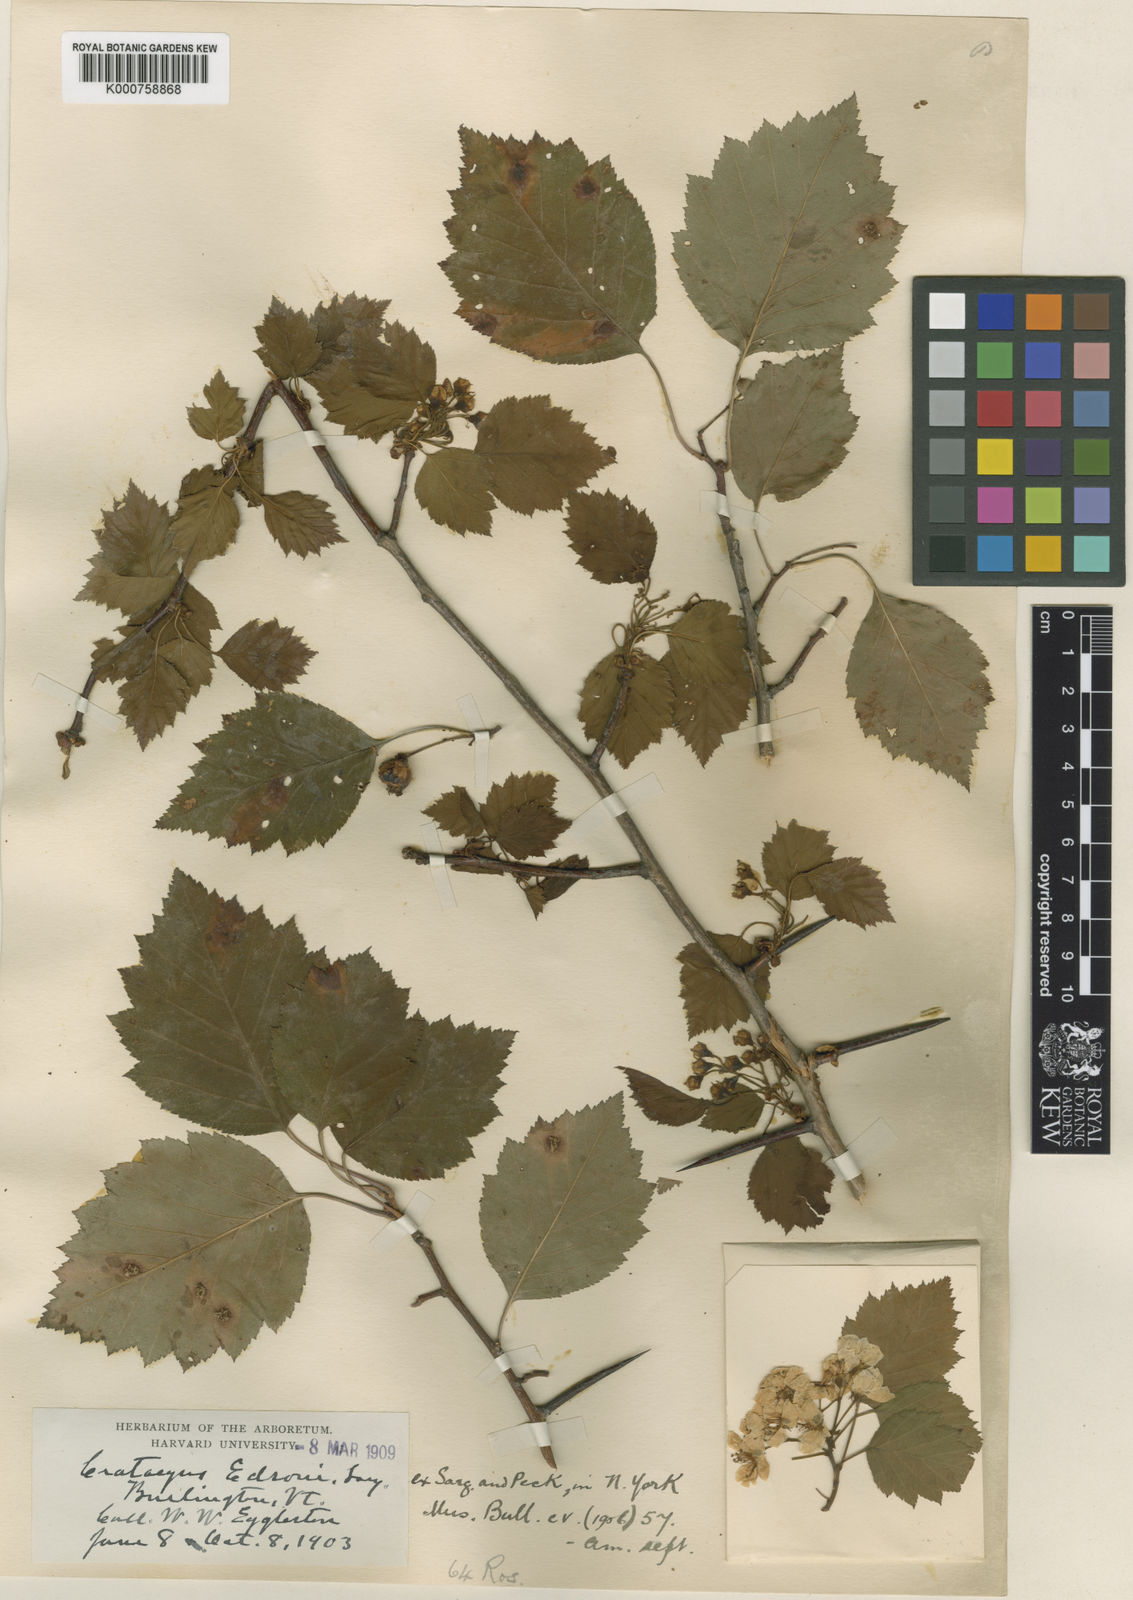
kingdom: Plantae
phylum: Tracheophyta
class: Magnoliopsida
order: Rosales
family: Rosaceae
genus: Crataegus
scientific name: Crataegus
